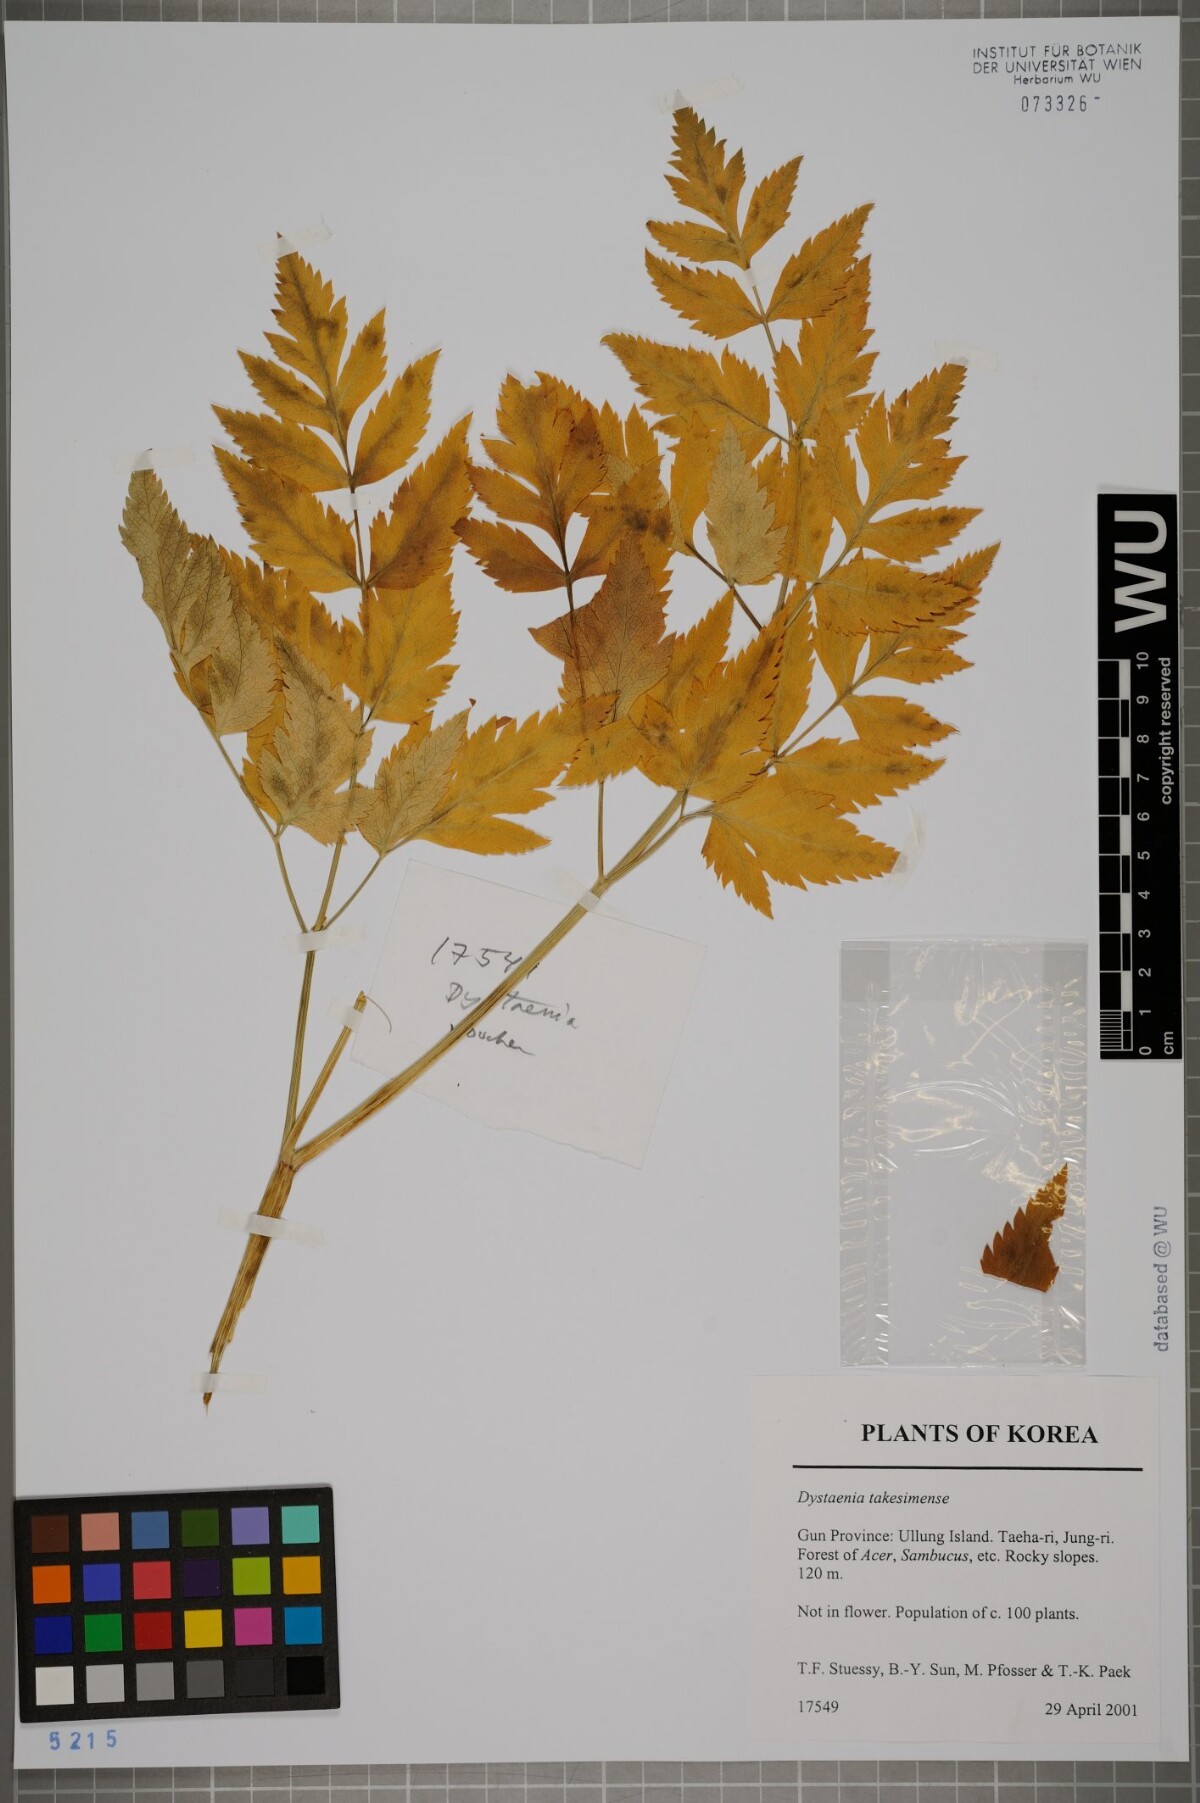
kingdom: Plantae
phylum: Tracheophyta
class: Magnoliopsida
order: Apiales
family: Apiaceae
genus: Dystaenia
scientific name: Dystaenia takeshimana
